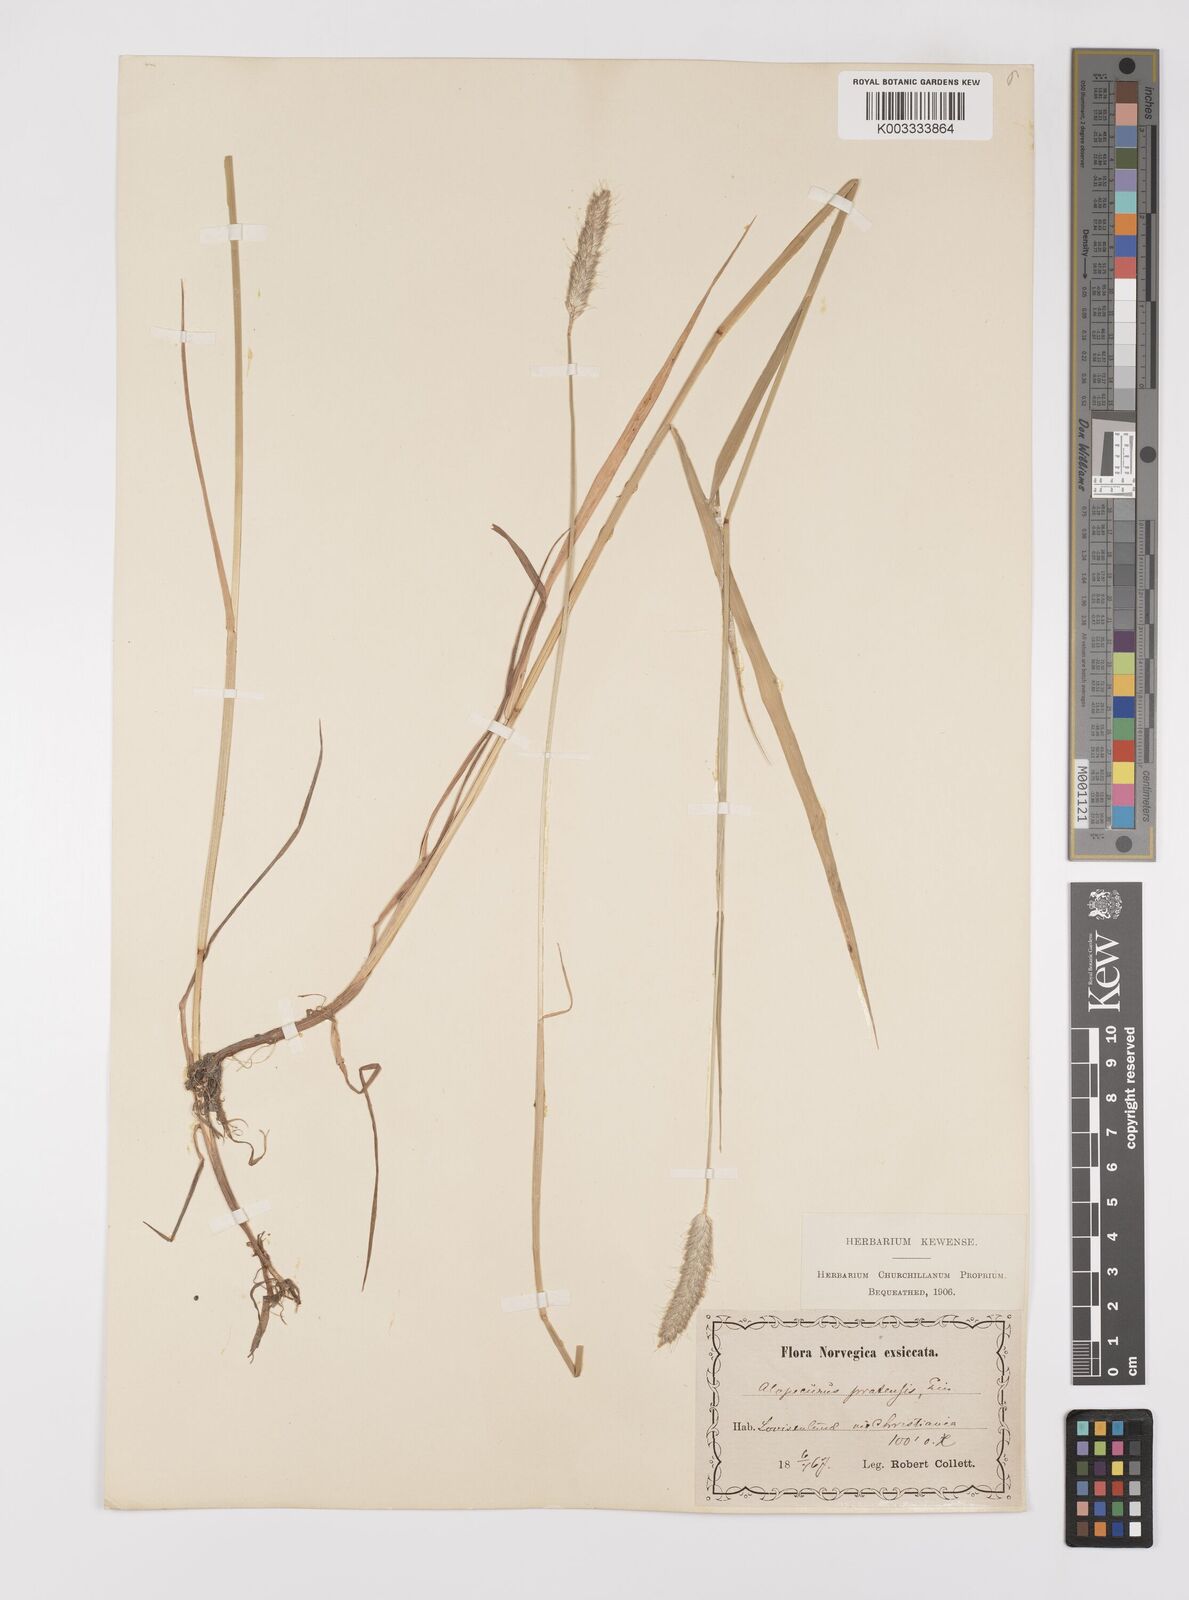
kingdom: Plantae
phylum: Tracheophyta
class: Liliopsida
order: Poales
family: Poaceae
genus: Alopecurus
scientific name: Alopecurus pratensis
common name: Meadow foxtail
